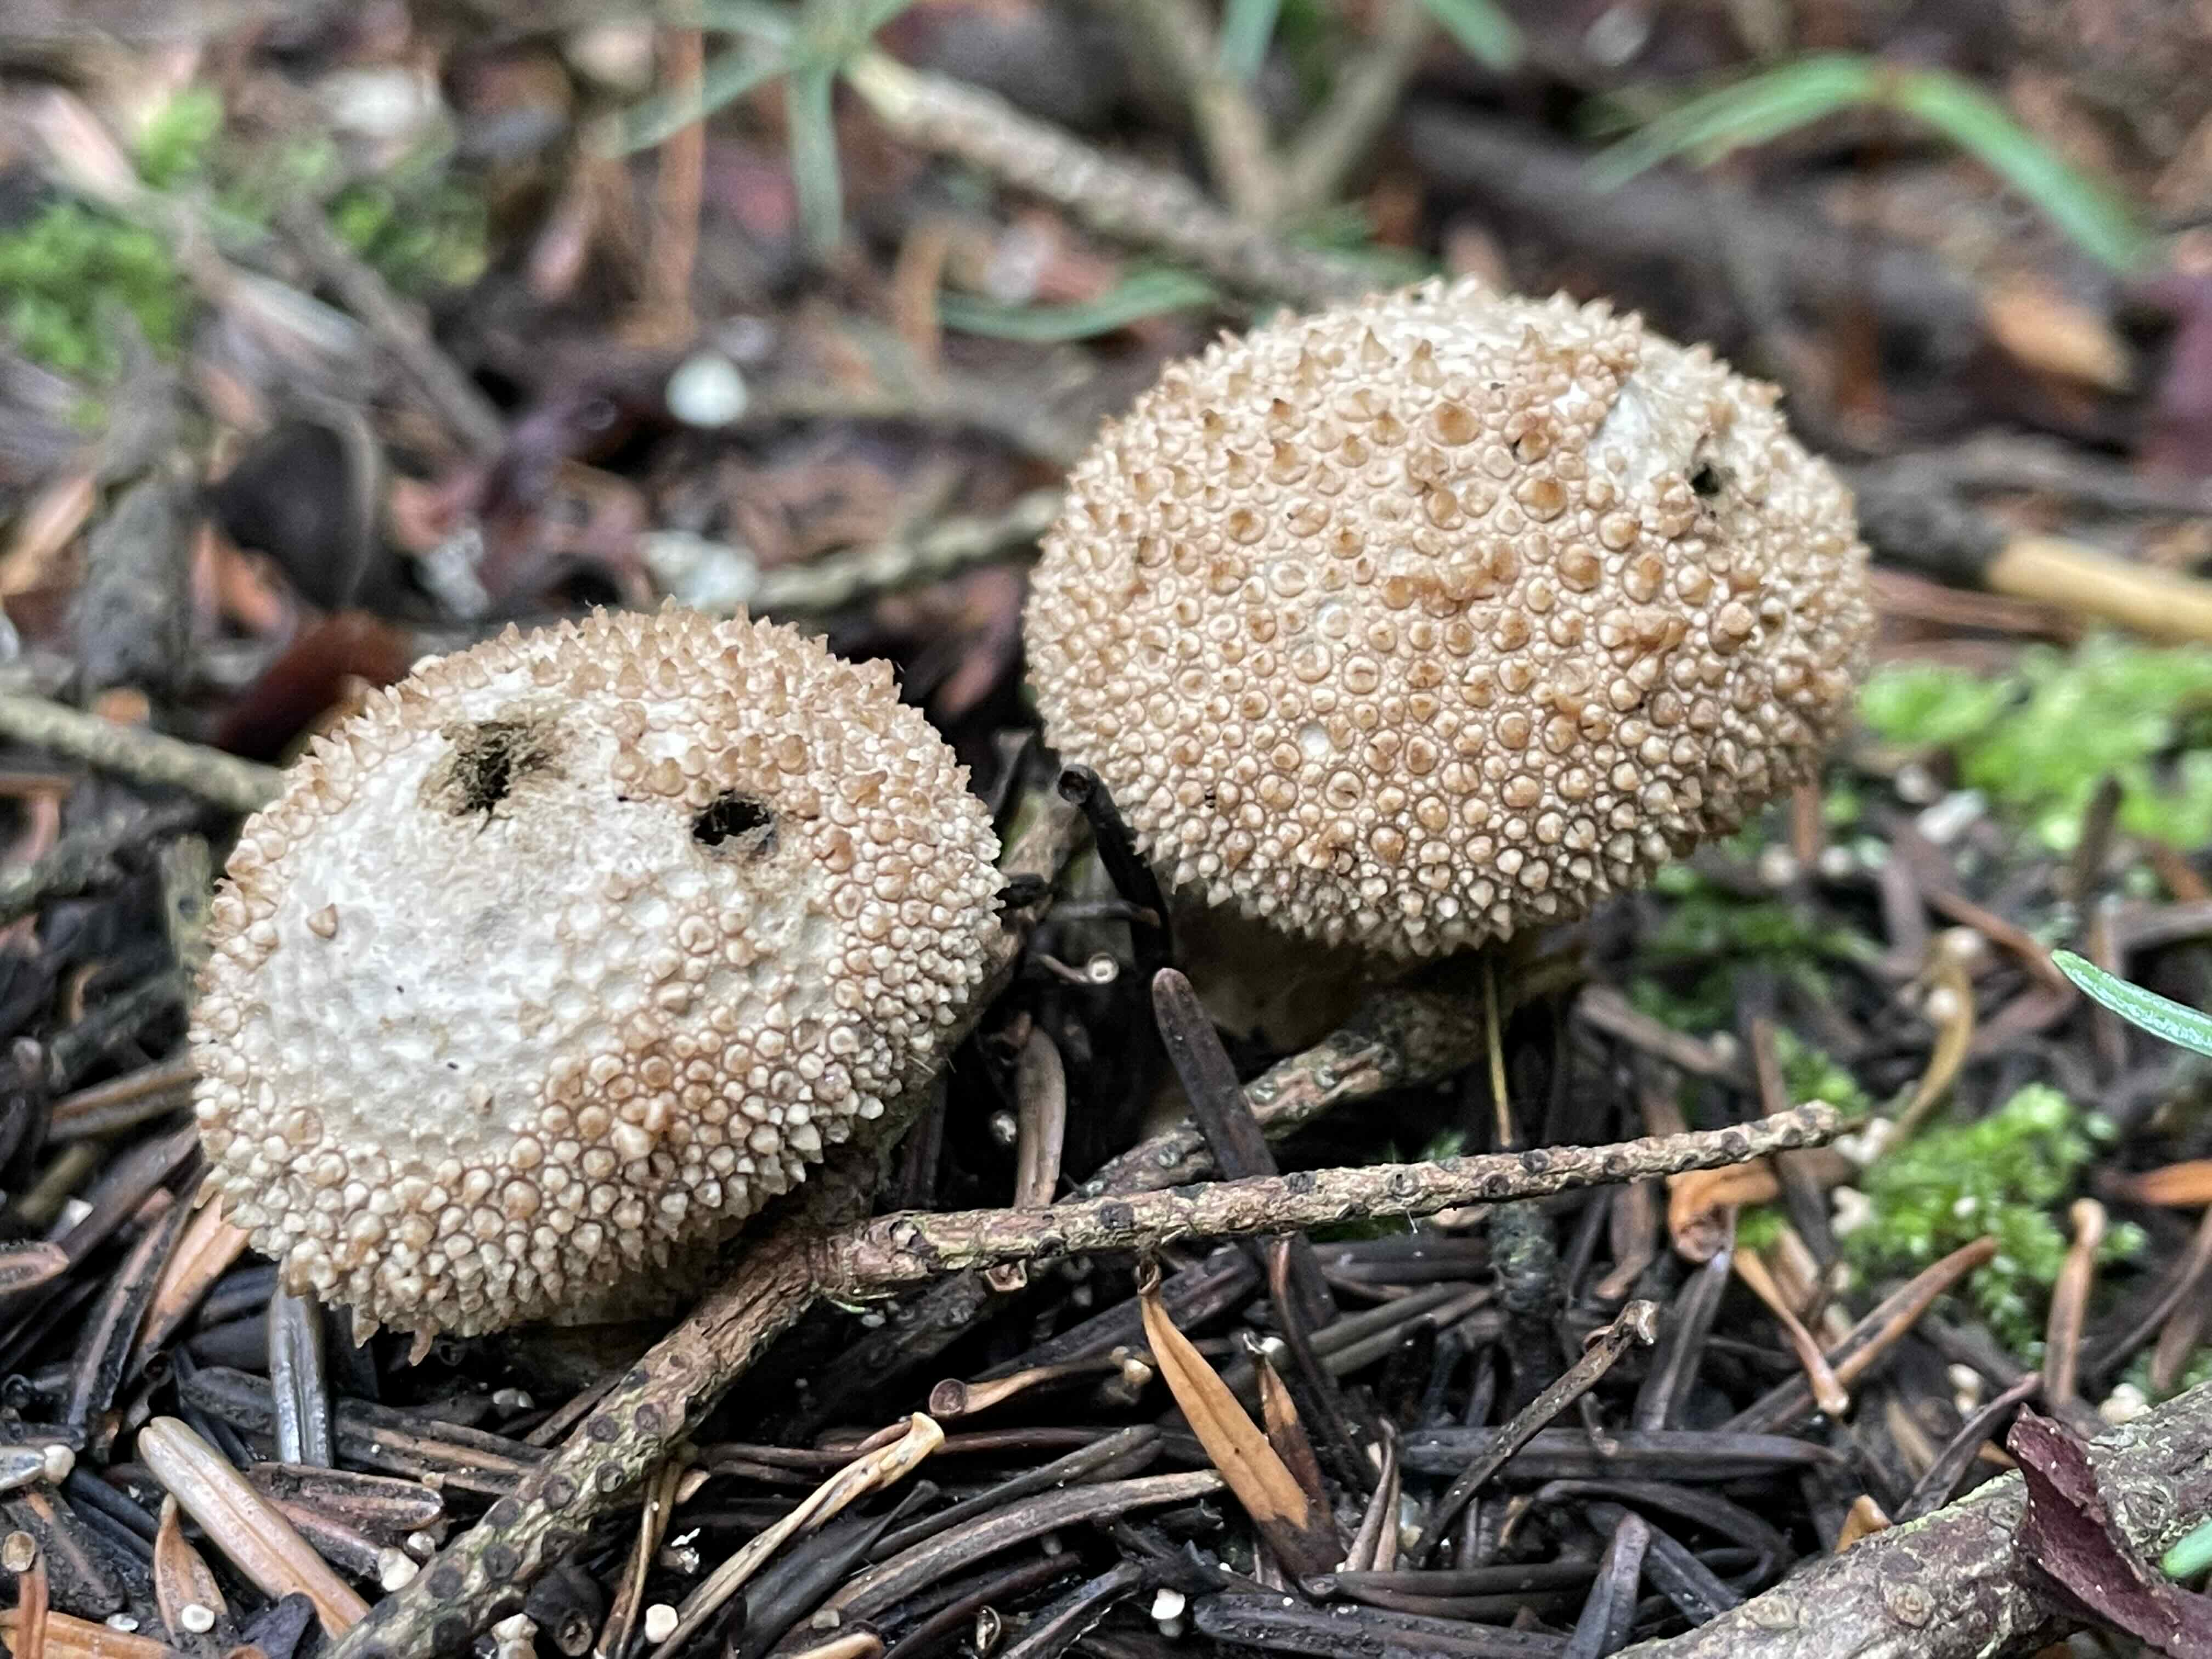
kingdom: Fungi
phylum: Basidiomycota
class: Agaricomycetes
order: Agaricales
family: Lycoperdaceae
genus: Lycoperdon
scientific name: Lycoperdon perlatum
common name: krystal-støvbold
